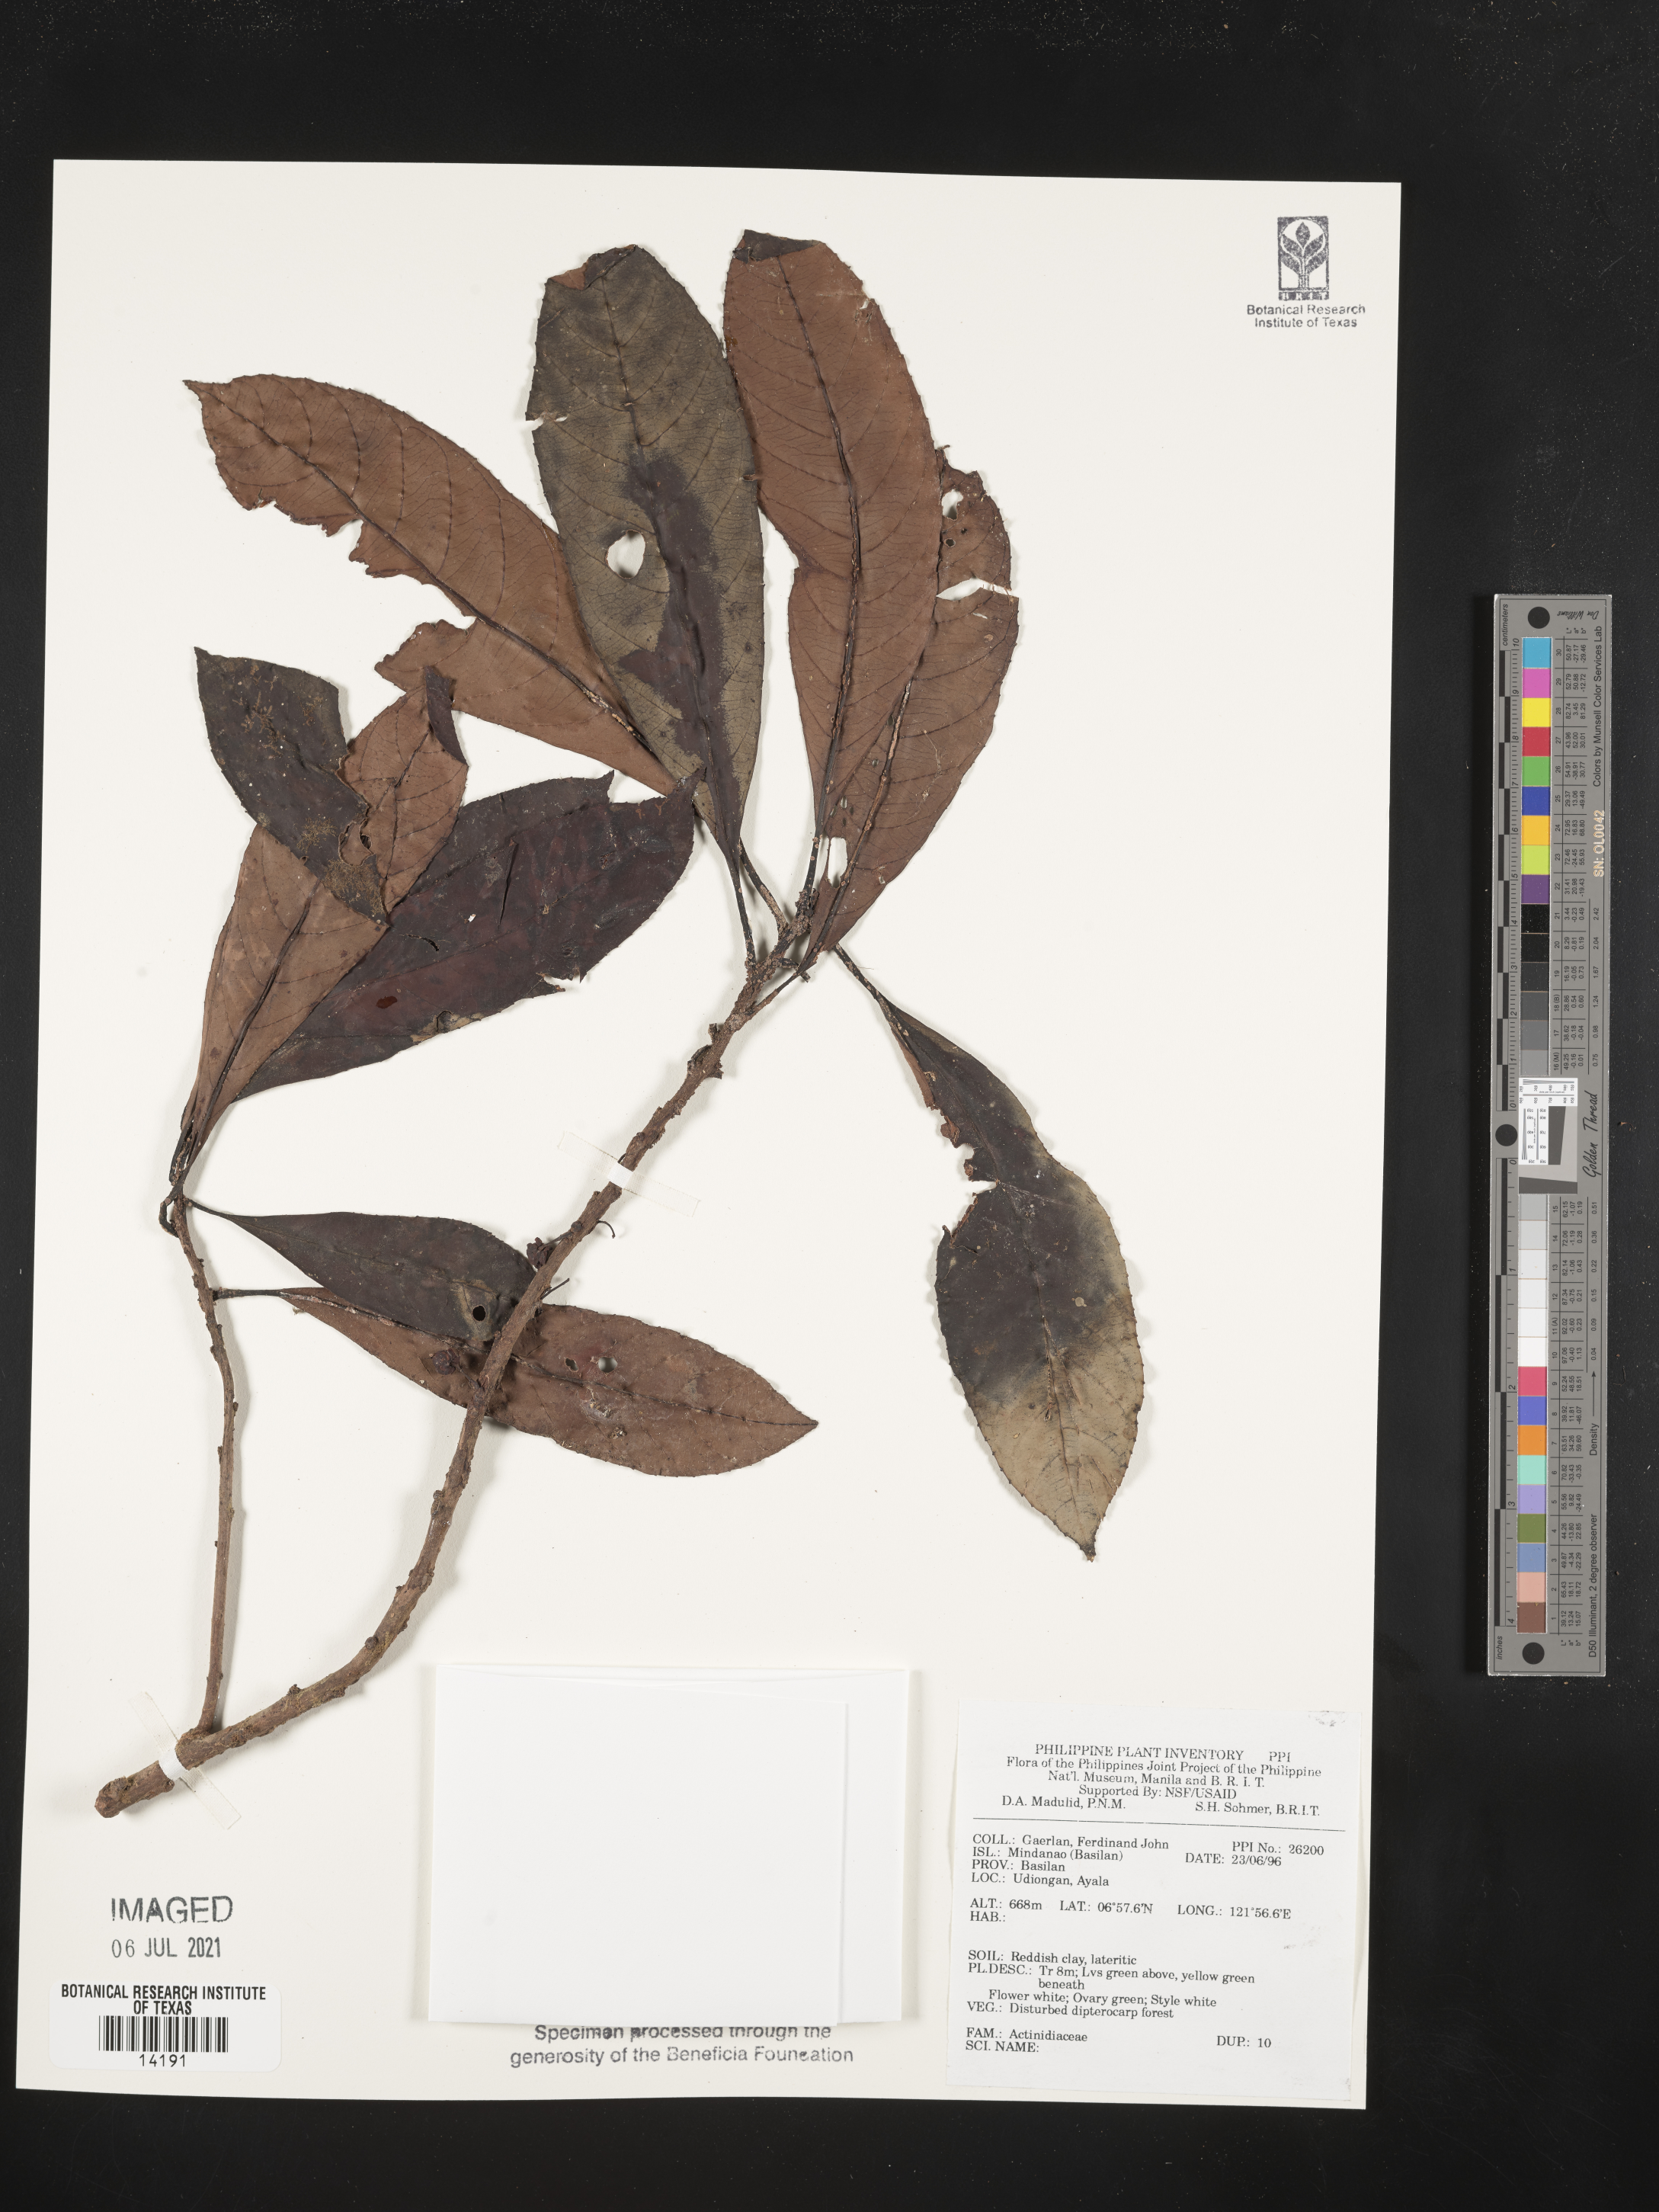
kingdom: Plantae
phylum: Tracheophyta
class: Magnoliopsida
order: Ericales
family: Actinidiaceae
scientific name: Actinidiaceae
